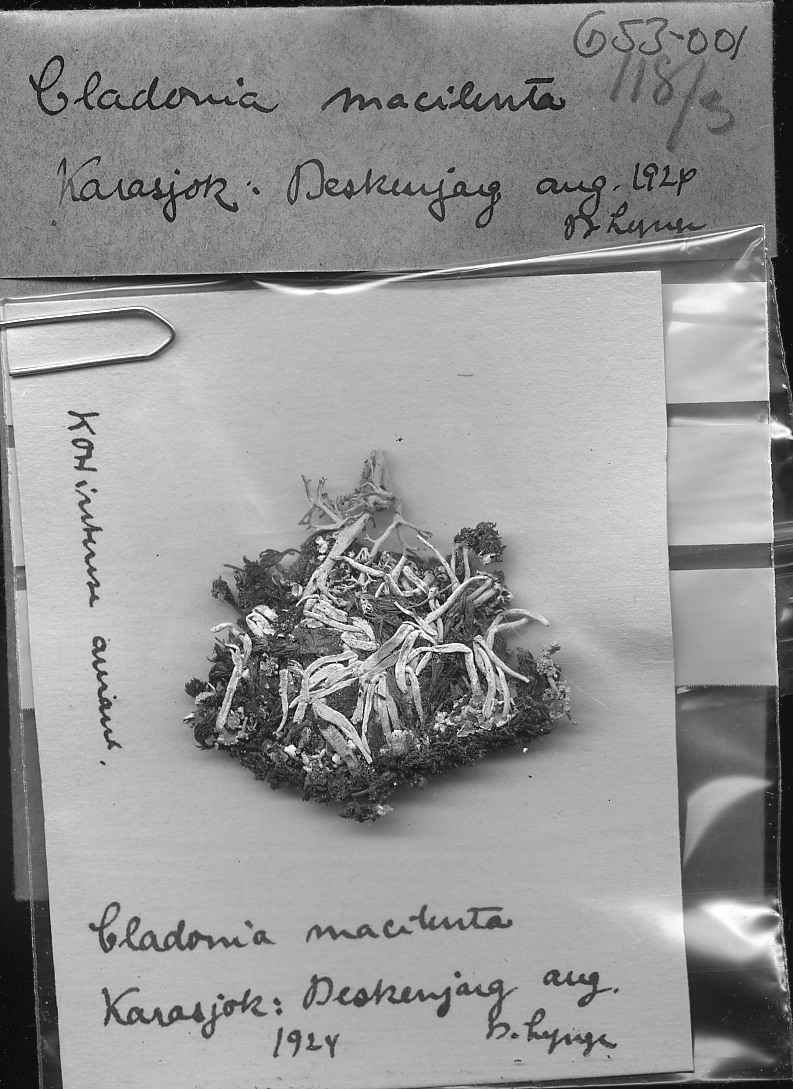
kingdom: Fungi
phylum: Ascomycota
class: Lecanoromycetes
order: Lecanorales
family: Cladoniaceae
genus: Cladonia
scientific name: Cladonia macilenta
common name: Lipstick powderhorn
